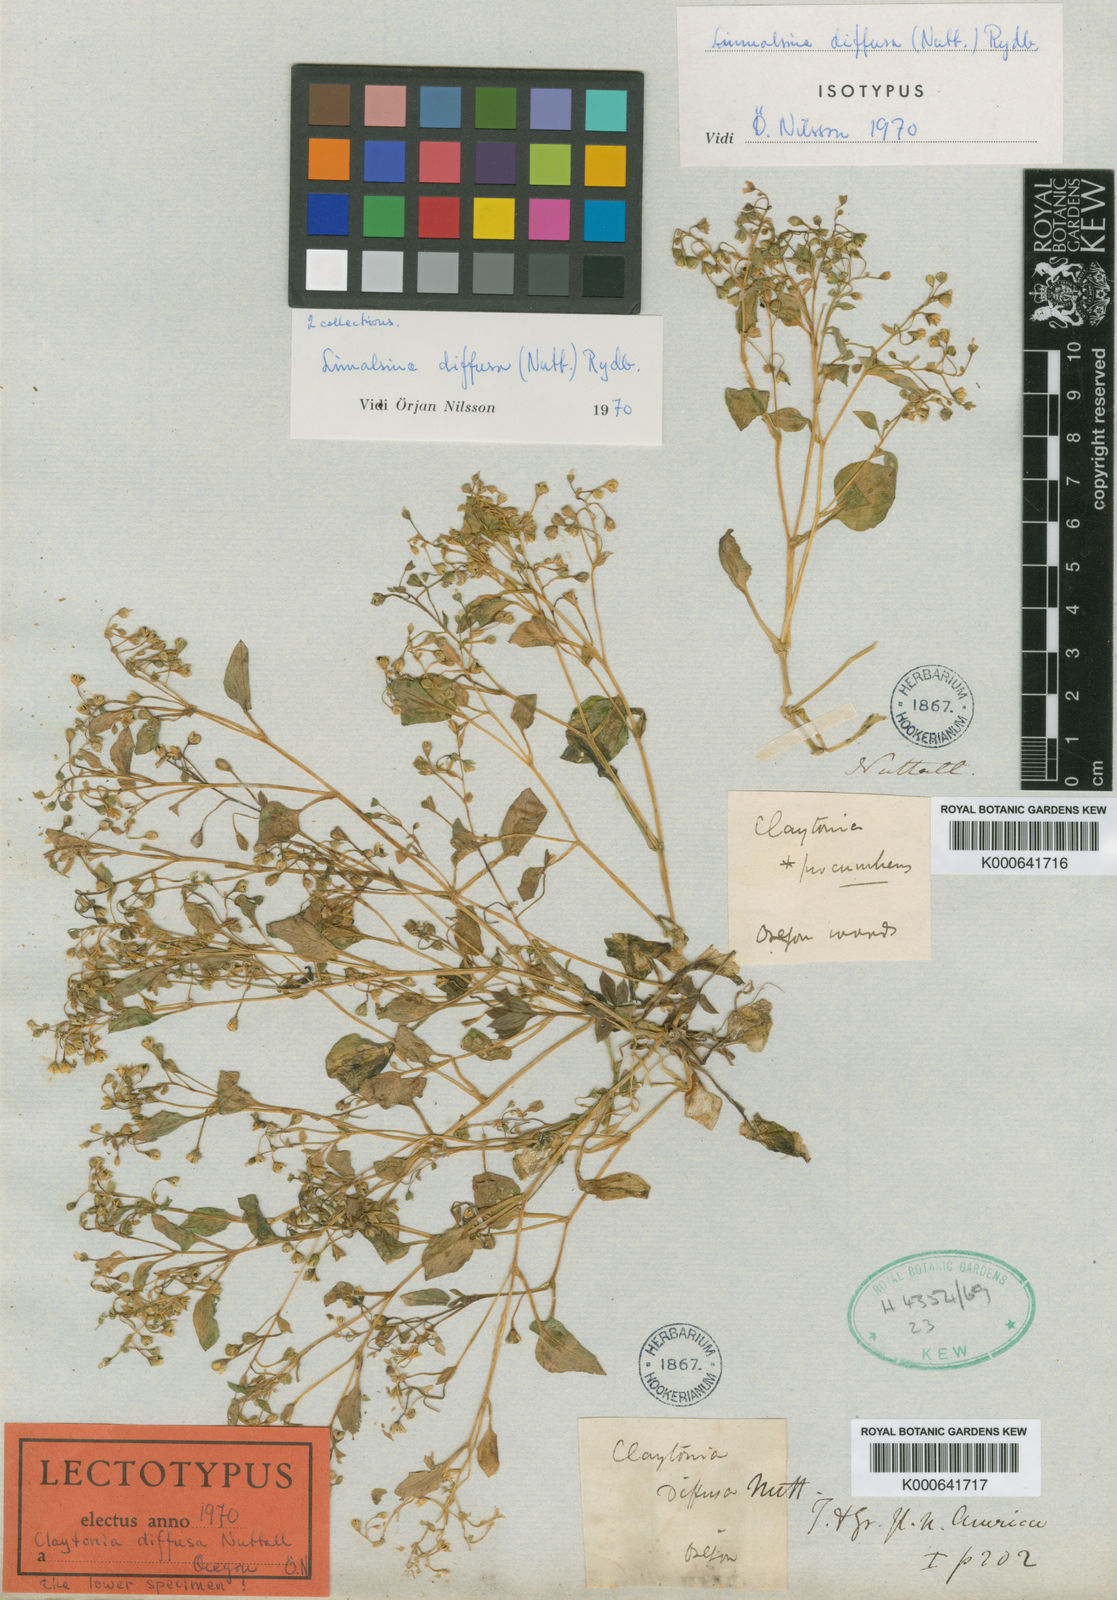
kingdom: Plantae
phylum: Tracheophyta
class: Magnoliopsida
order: Caryophyllales
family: Montiaceae
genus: Montia
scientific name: Montia diffusa
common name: Branching montia
